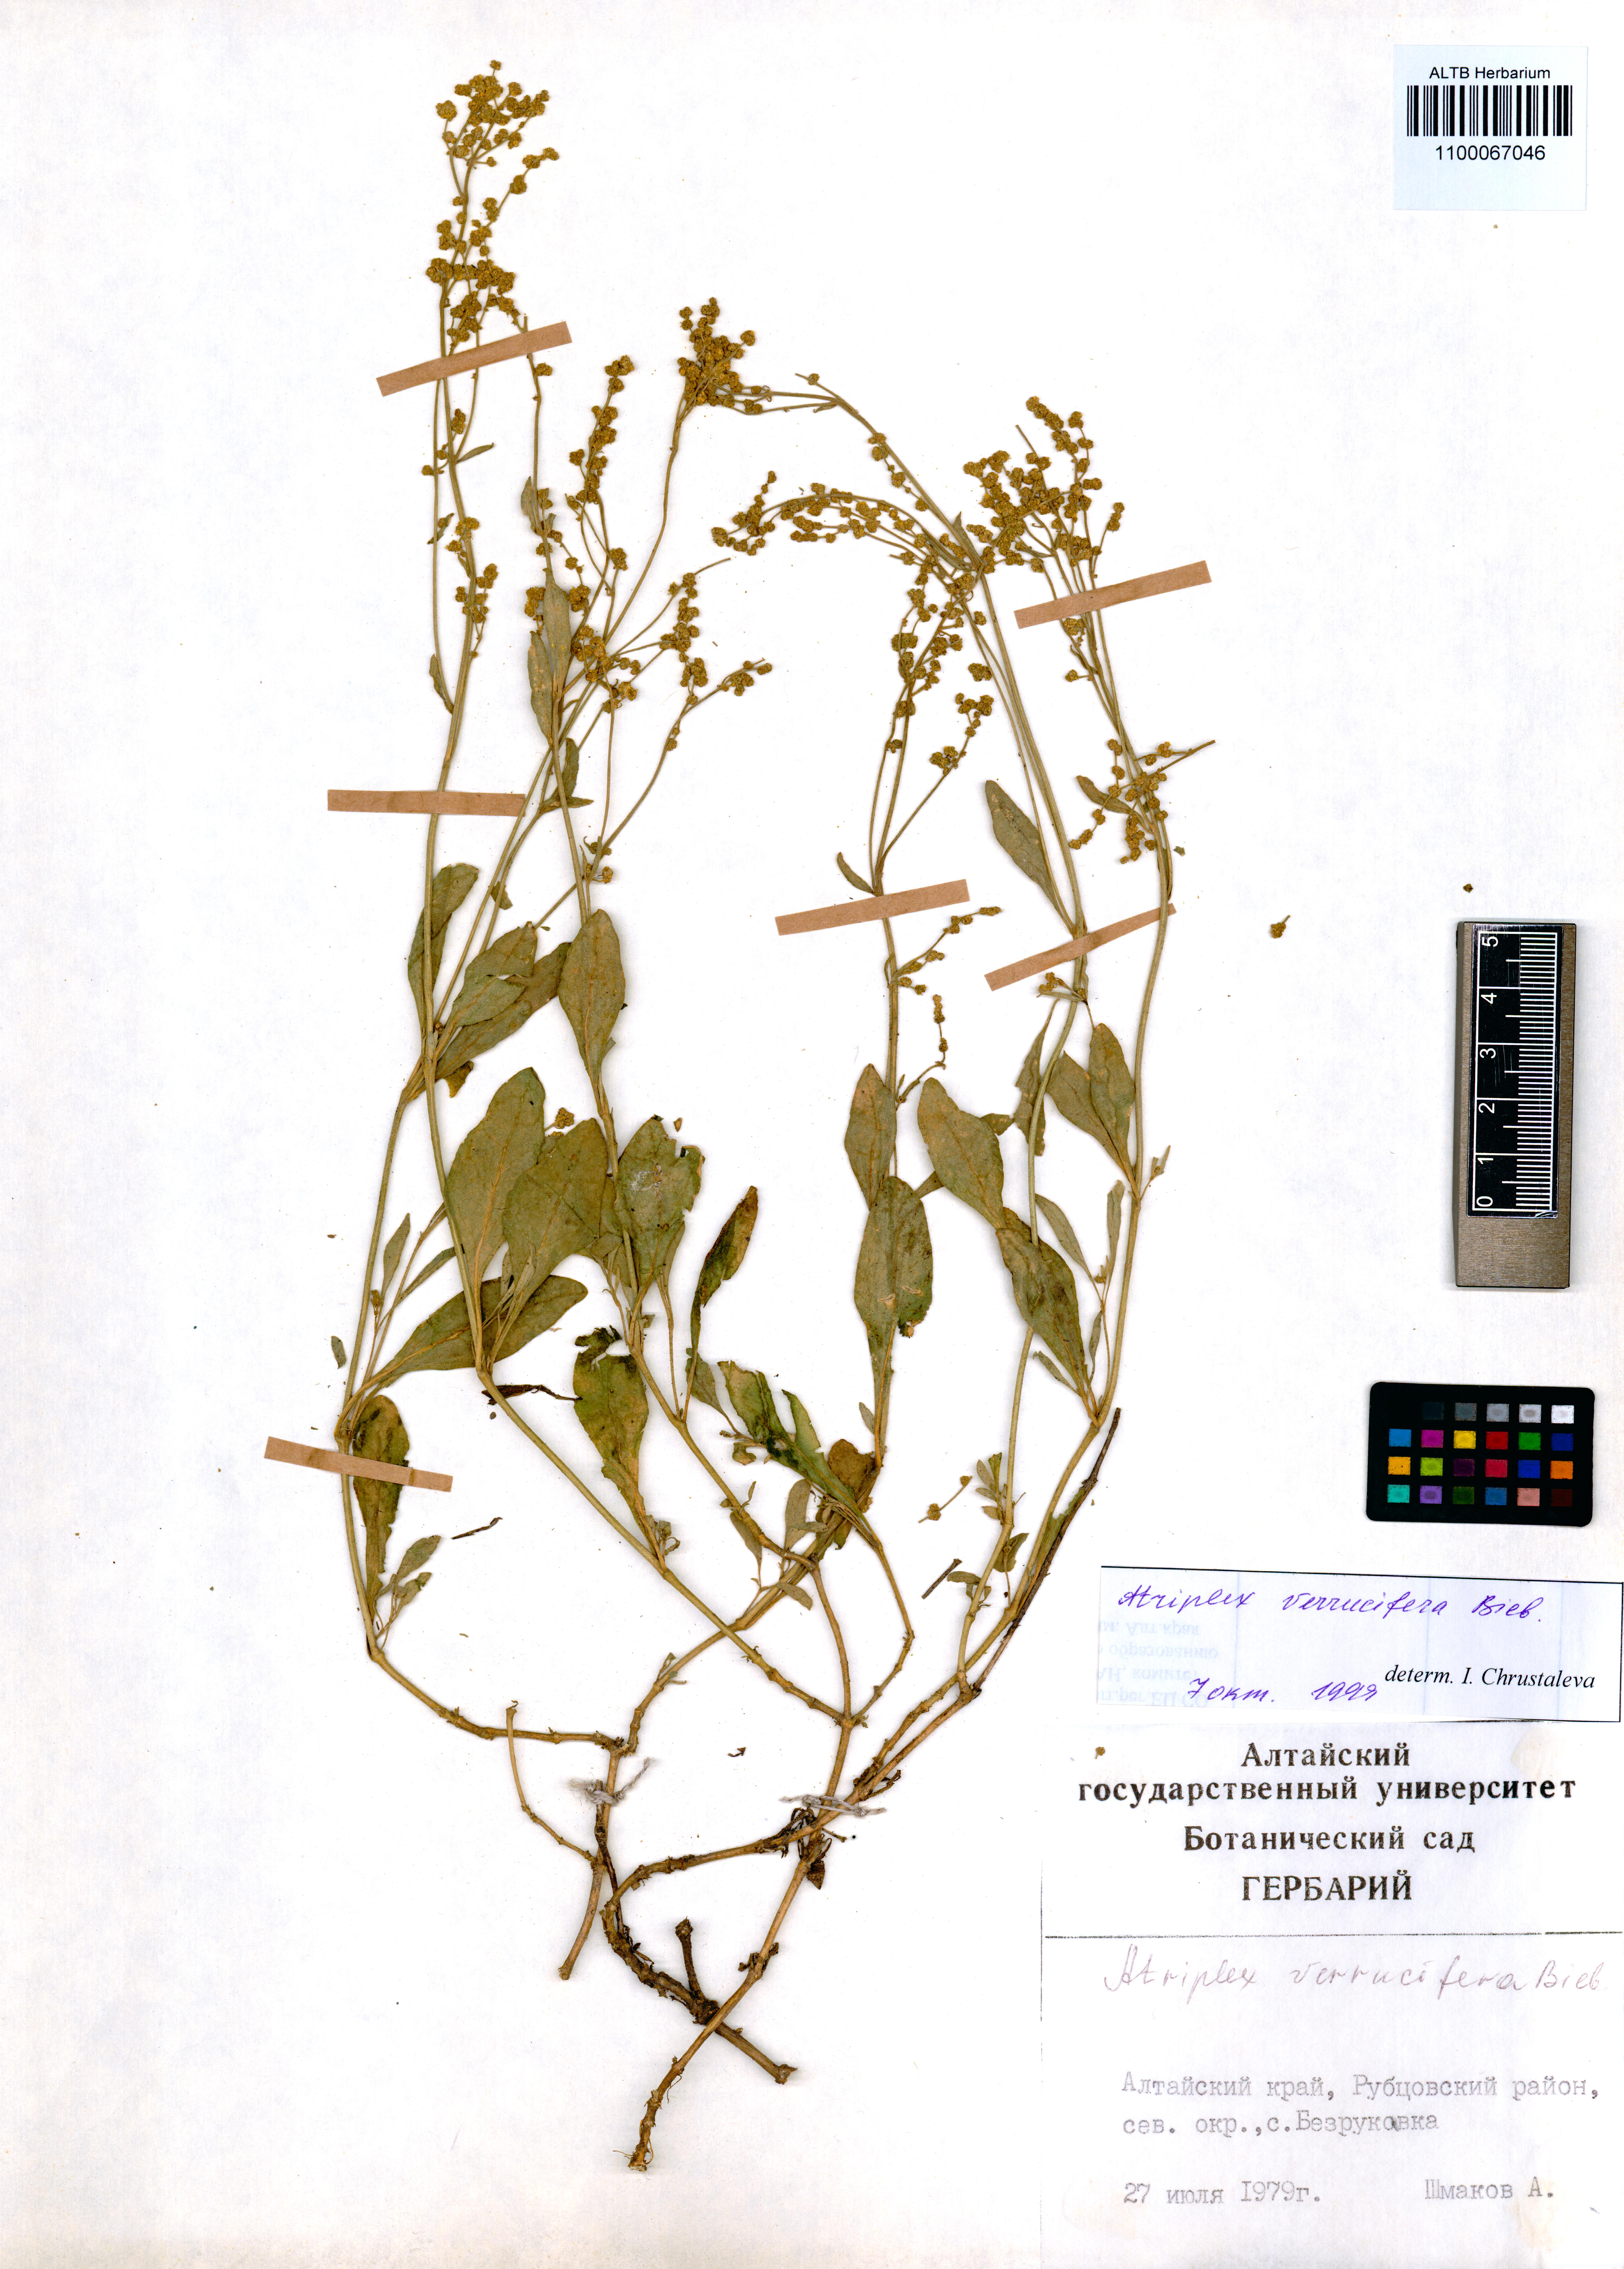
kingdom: Plantae
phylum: Tracheophyta
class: Magnoliopsida
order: Caryophyllales
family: Amaranthaceae
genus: Halimione
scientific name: Halimione verrucifera
